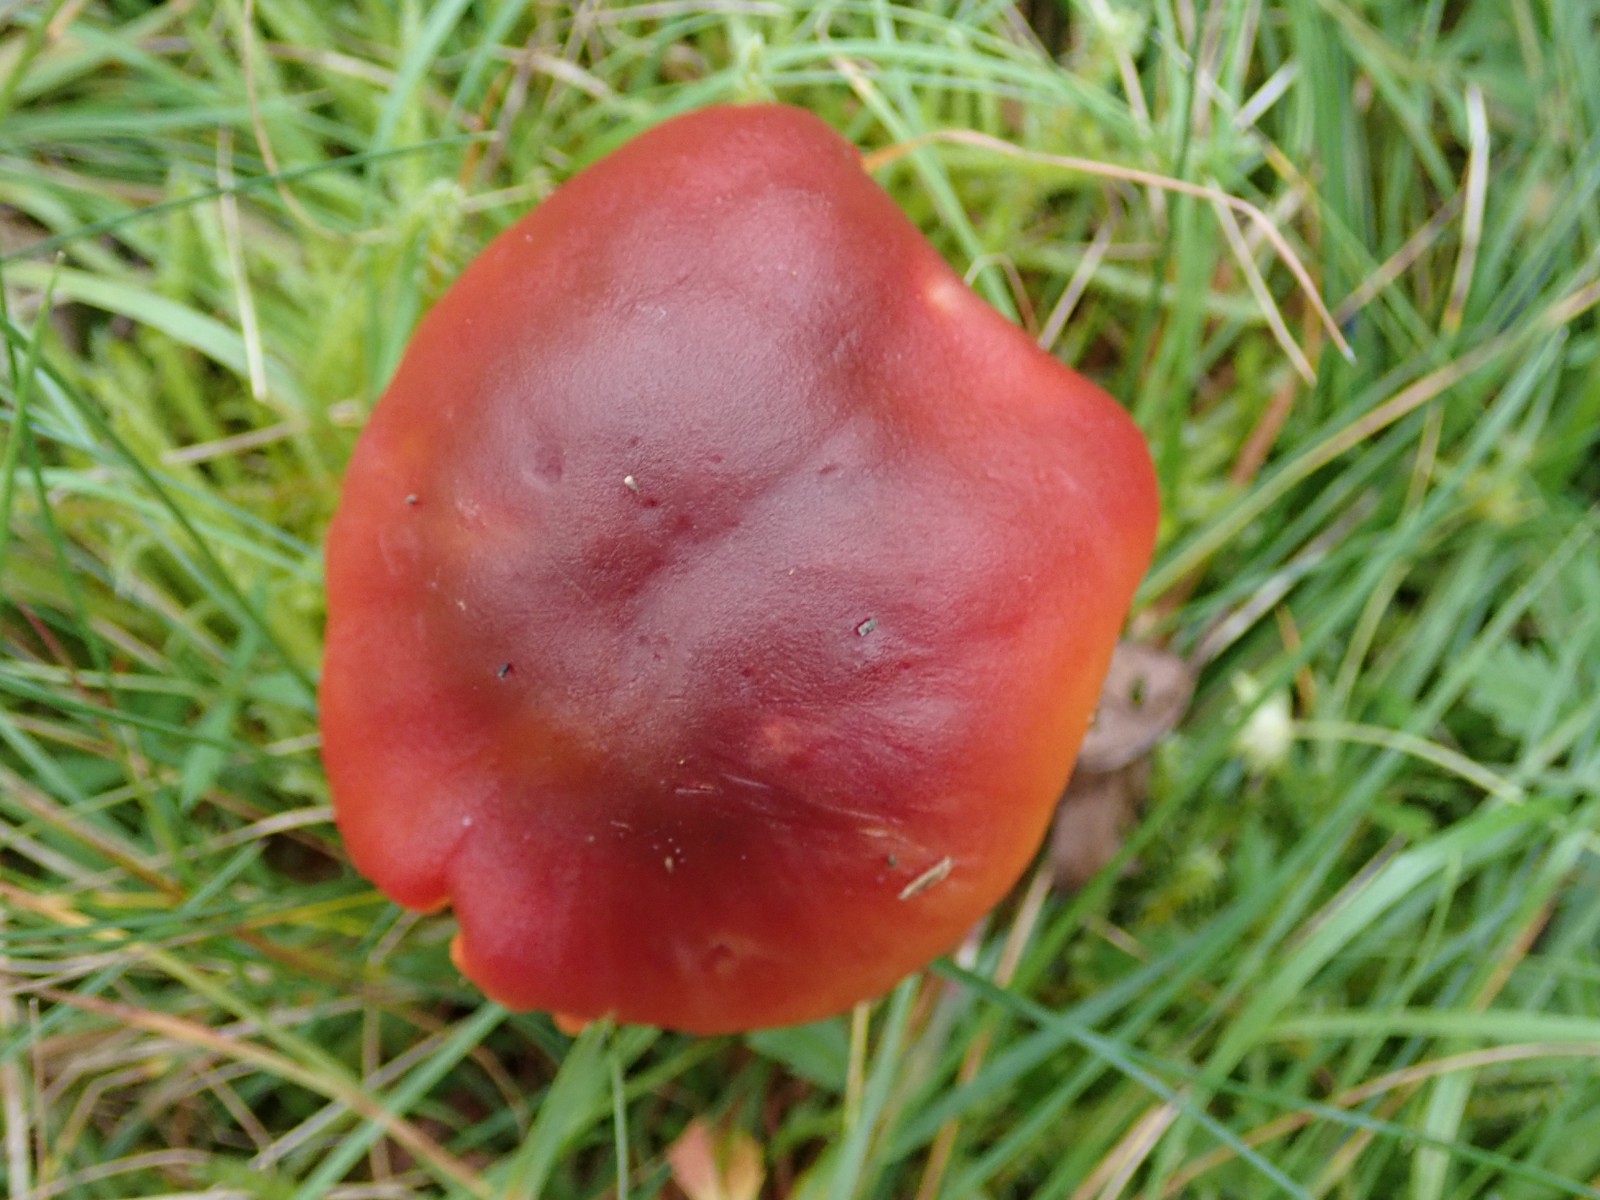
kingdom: Fungi
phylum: Basidiomycota
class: Agaricomycetes
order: Agaricales
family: Hygrophoraceae
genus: Hygrocybe
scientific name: Hygrocybe punicea
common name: skarlagen-vokshat
